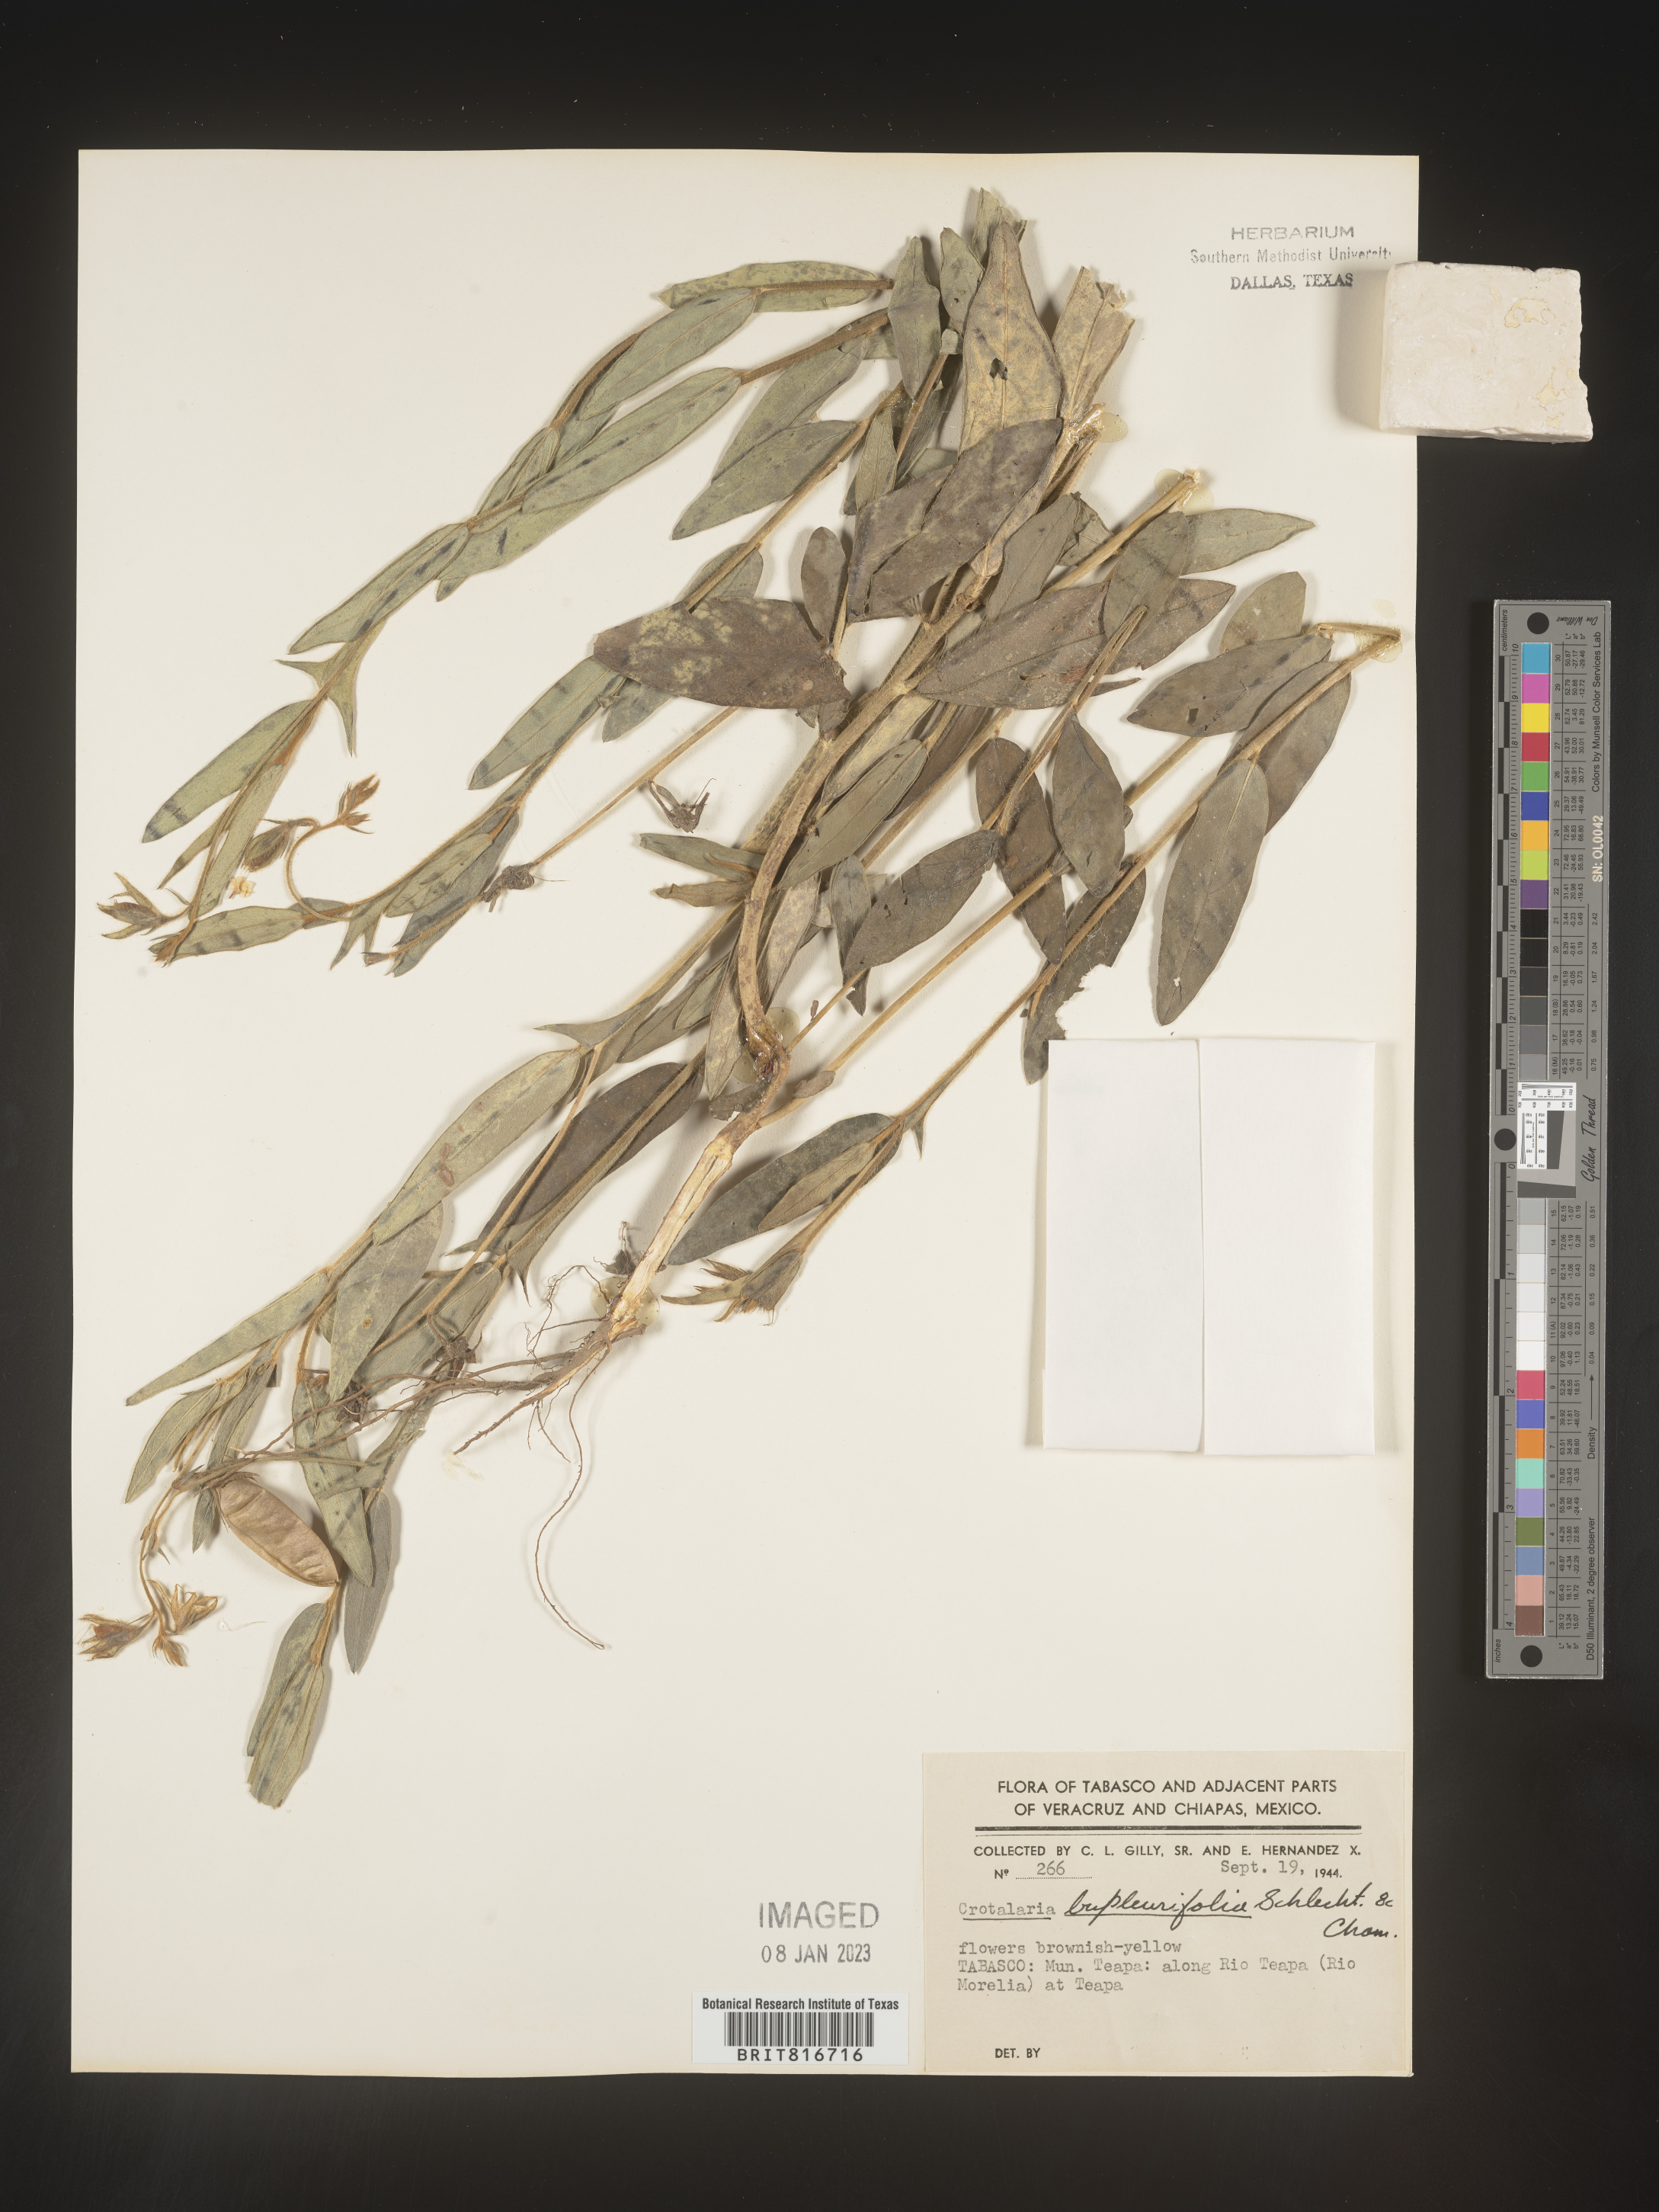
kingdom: Plantae
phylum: Tracheophyta
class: Magnoliopsida
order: Fabales
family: Fabaceae
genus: Crotalaria
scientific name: Crotalaria
